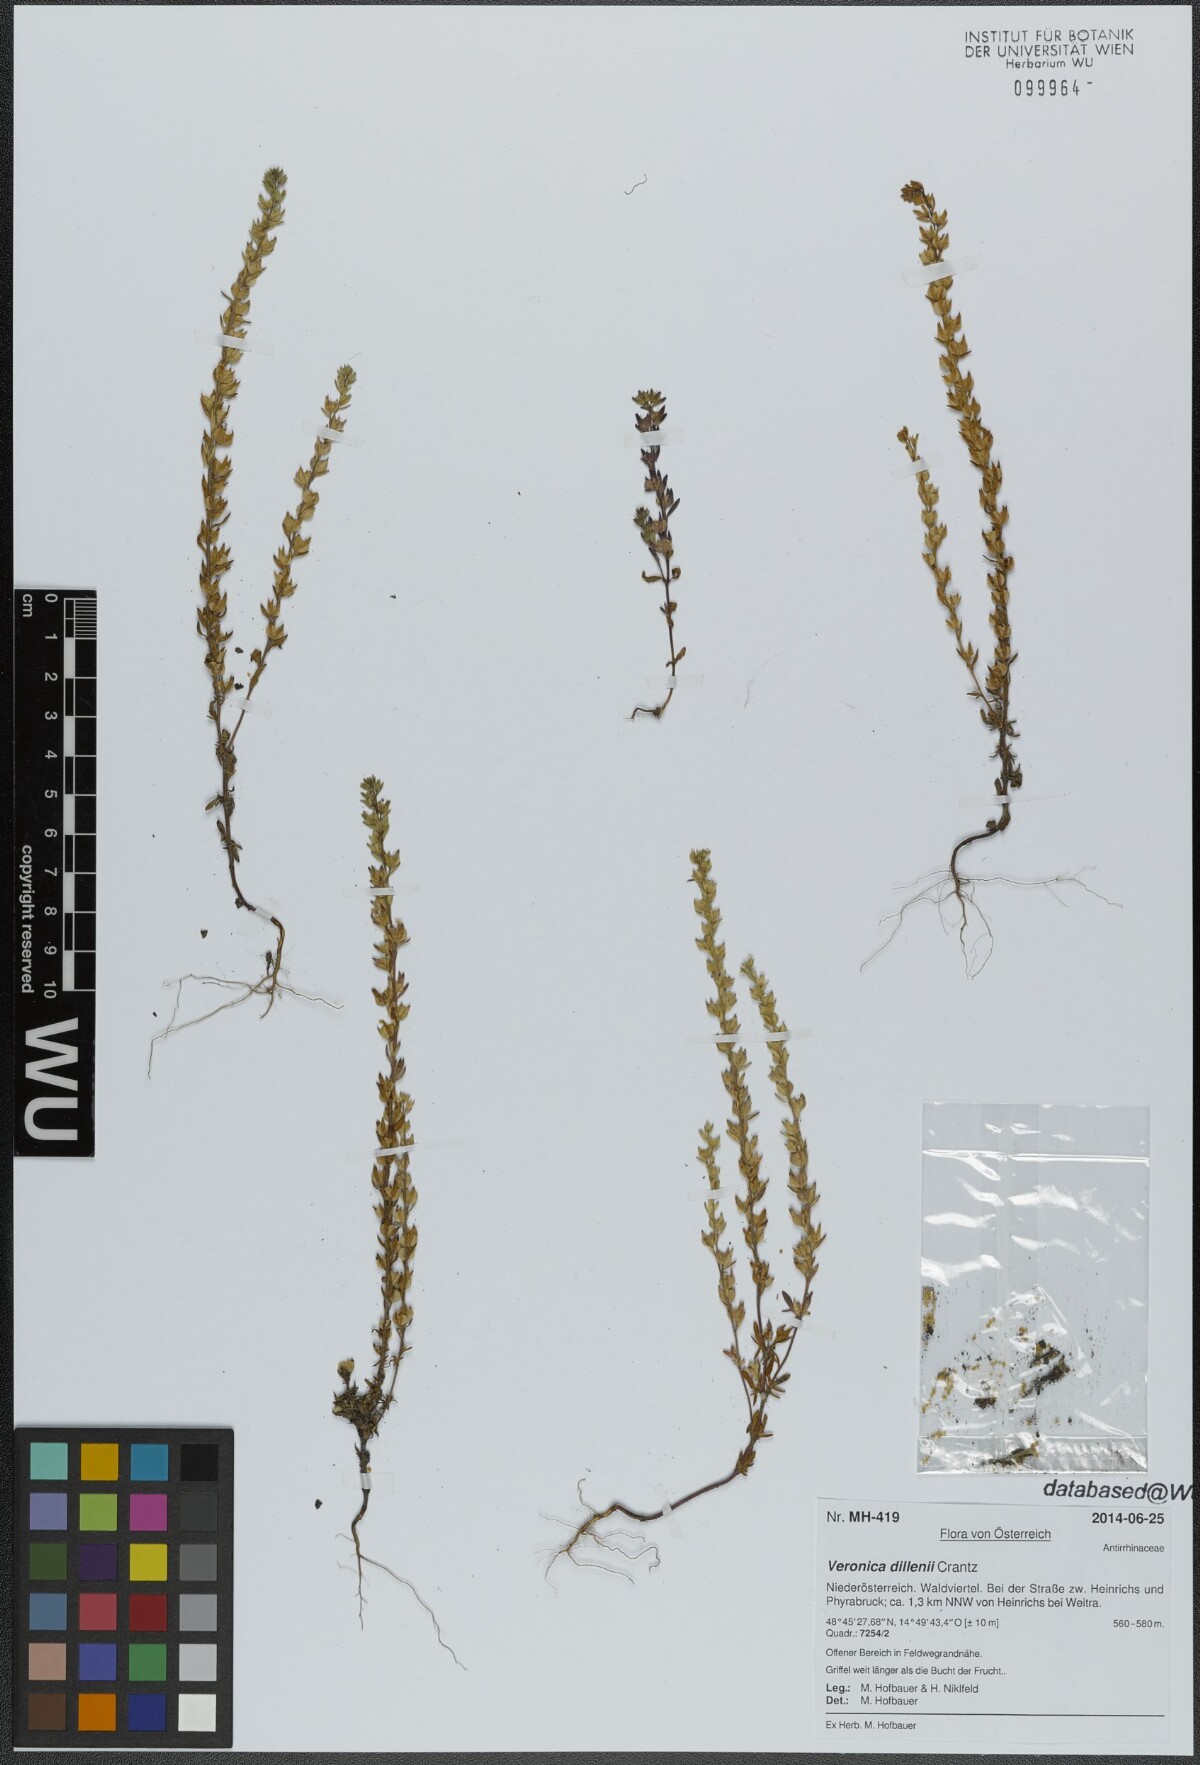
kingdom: Plantae
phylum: Tracheophyta
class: Magnoliopsida
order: Lamiales
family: Plantaginaceae
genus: Veronica
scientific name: Veronica dillenii
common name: Dillenius' speedwell
